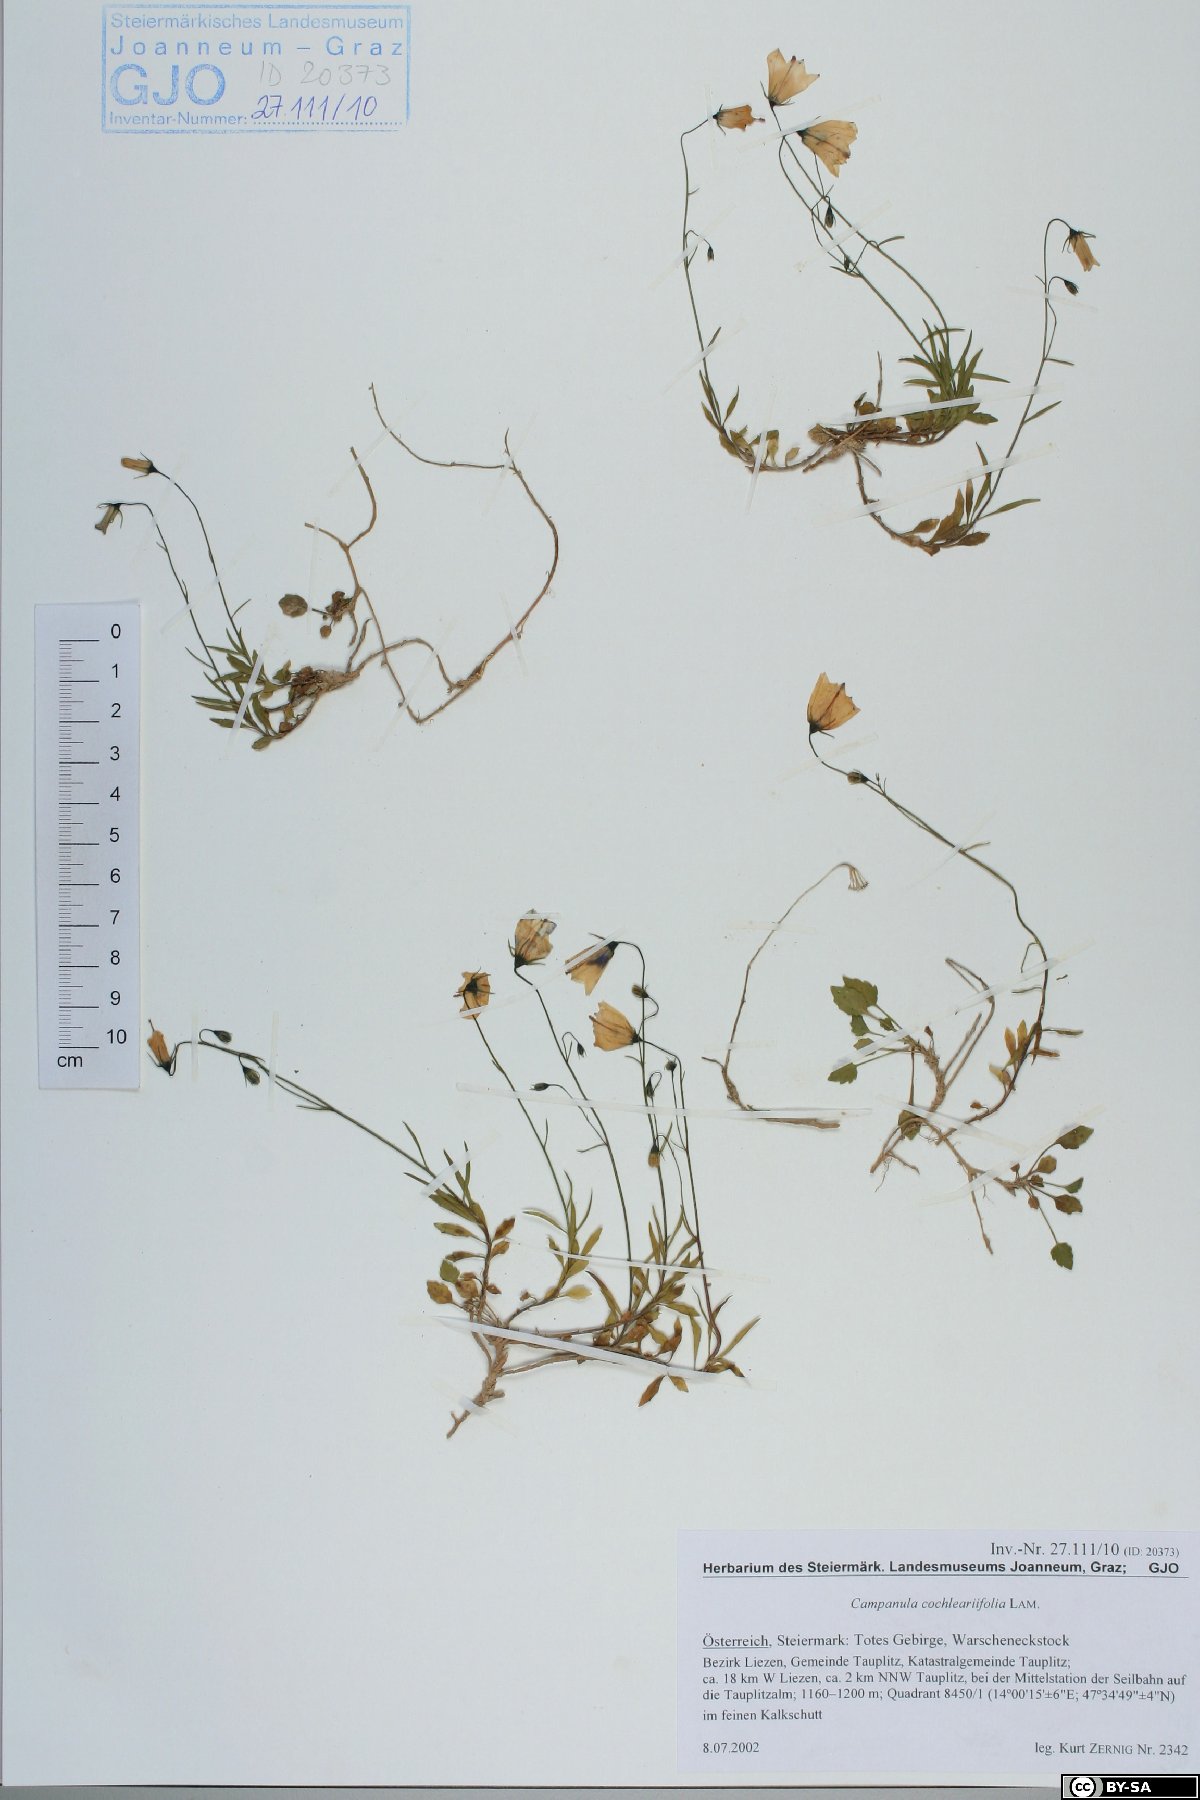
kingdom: Plantae
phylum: Tracheophyta
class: Magnoliopsida
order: Asterales
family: Campanulaceae
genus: Campanula
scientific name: Campanula cochleariifolia
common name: Fairies'-thimbles
